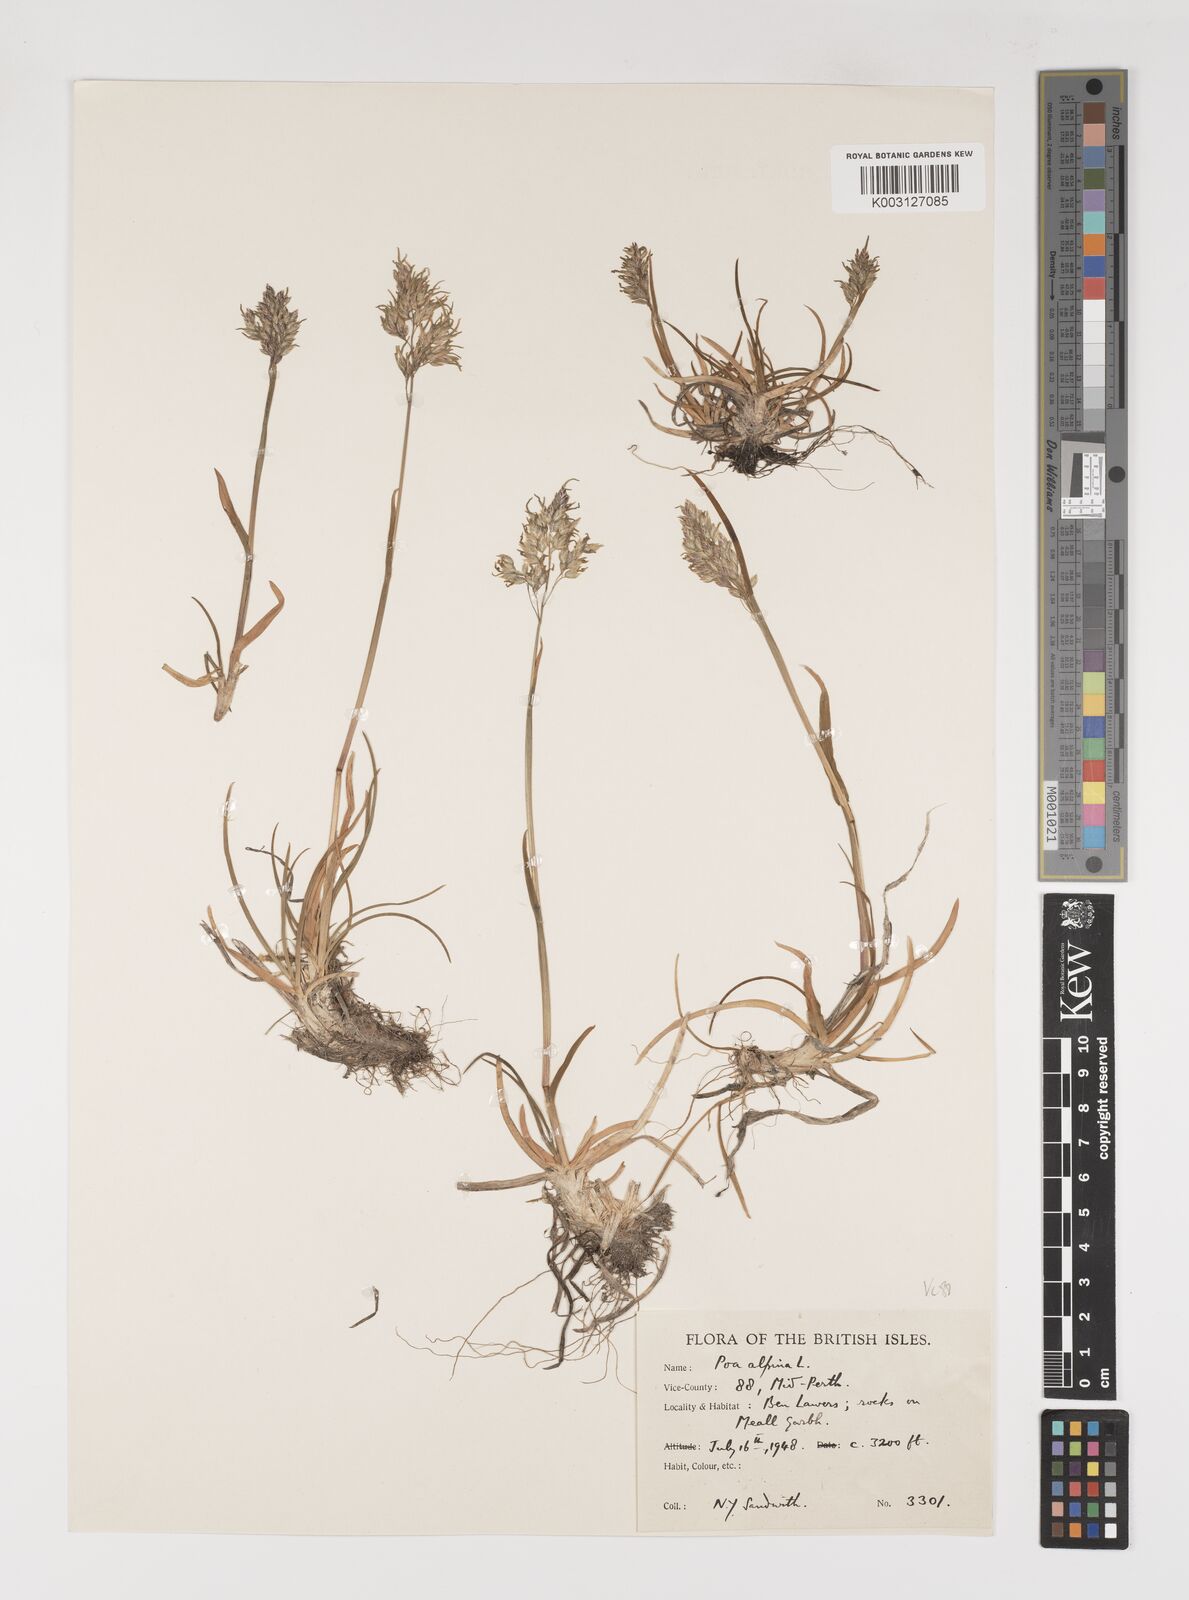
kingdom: Plantae
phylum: Tracheophyta
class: Liliopsida
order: Poales
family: Poaceae
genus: Poa
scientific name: Poa alpina
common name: Alpine bluegrass
